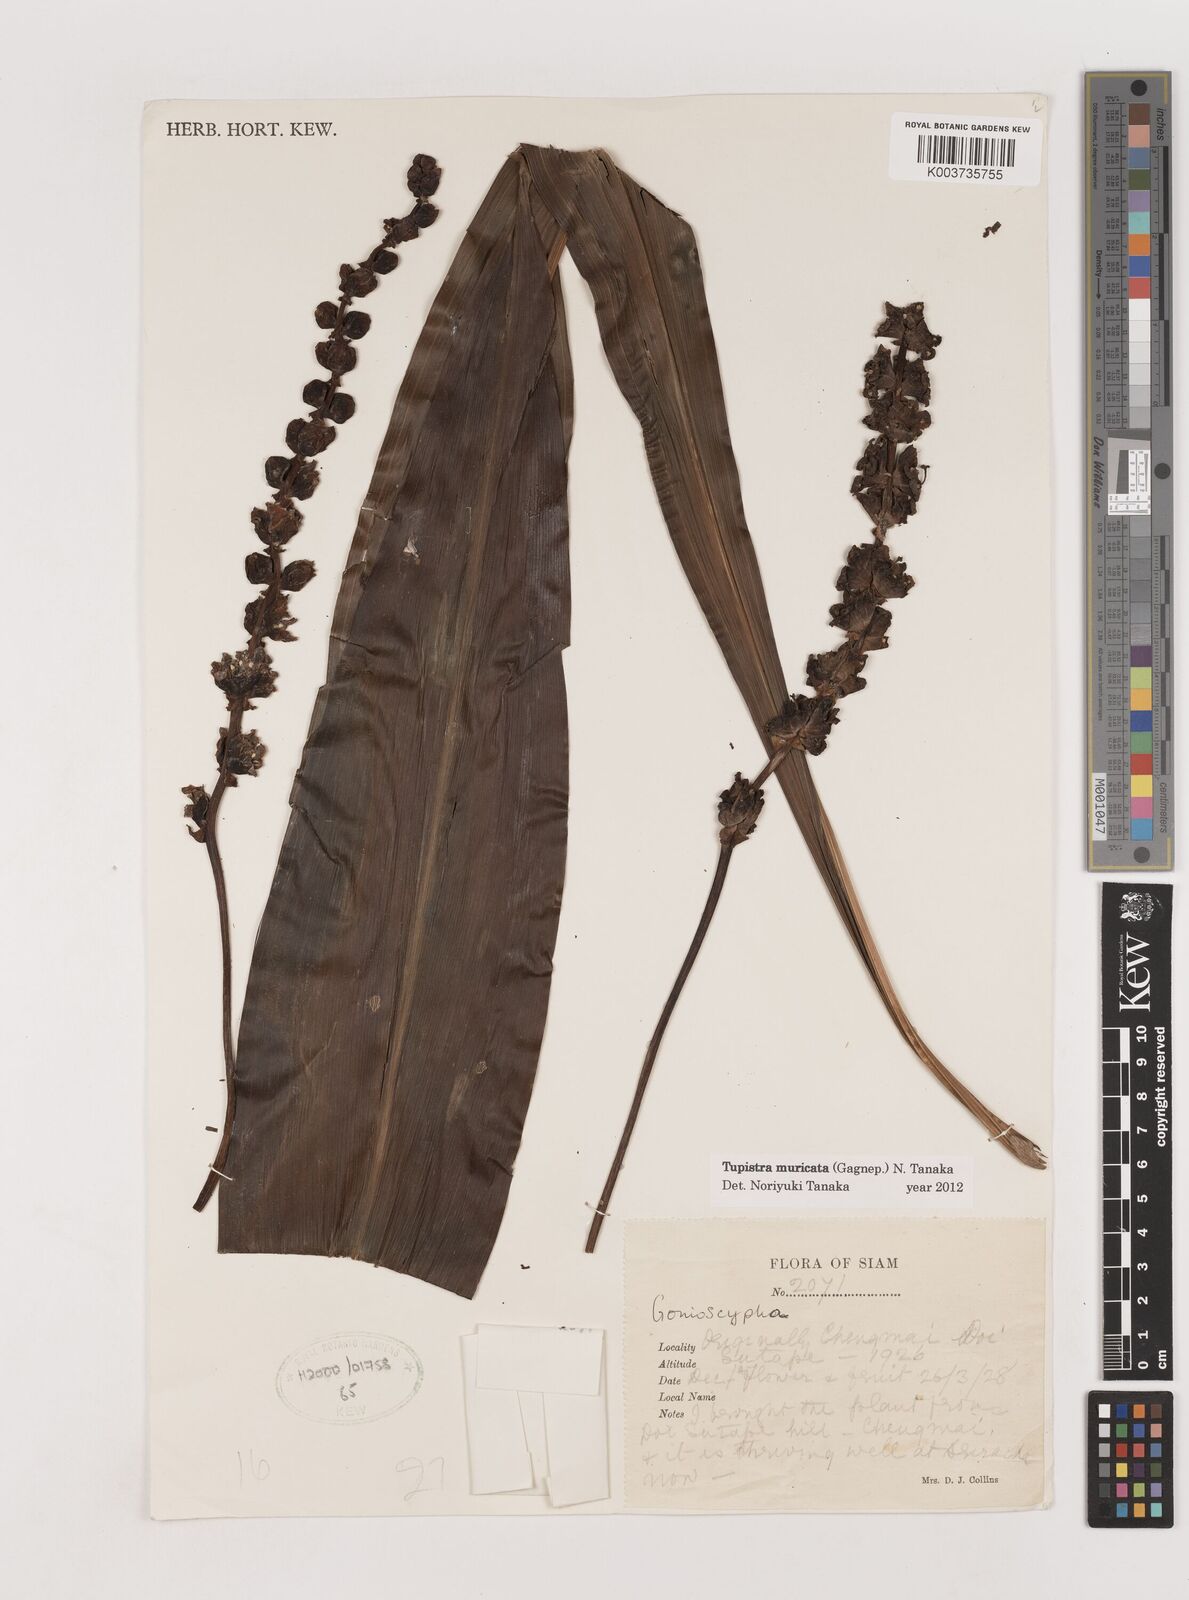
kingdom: Plantae
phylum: Tracheophyta
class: Liliopsida
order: Asparagales
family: Asparagaceae
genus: Tupistra
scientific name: Tupistra muricata
